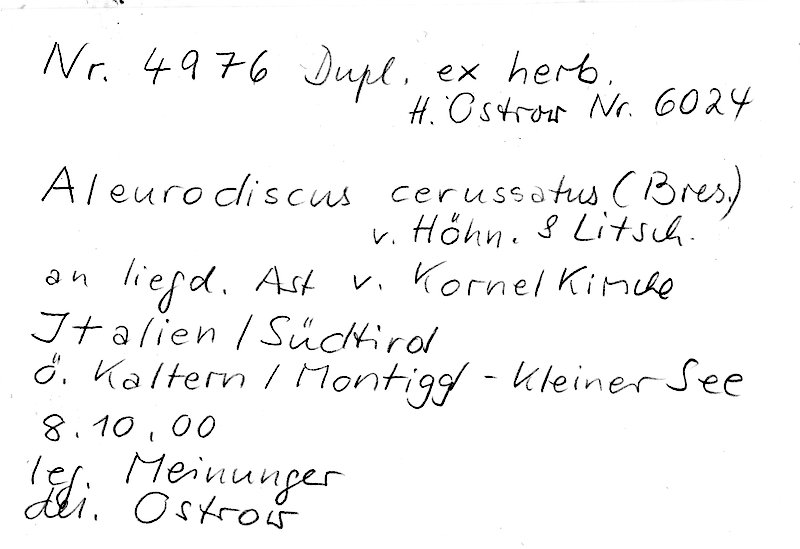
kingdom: Fungi
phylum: Basidiomycota
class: Agaricomycetes
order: Russulales
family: Stereaceae
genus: Aleurodiscus
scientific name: Aleurodiscus cerussatus
